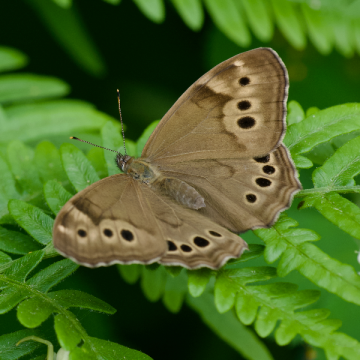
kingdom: Animalia
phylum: Arthropoda
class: Insecta
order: Lepidoptera
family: Nymphalidae
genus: Lethe
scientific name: Lethe anthedon
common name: Northern Pearly-Eye
